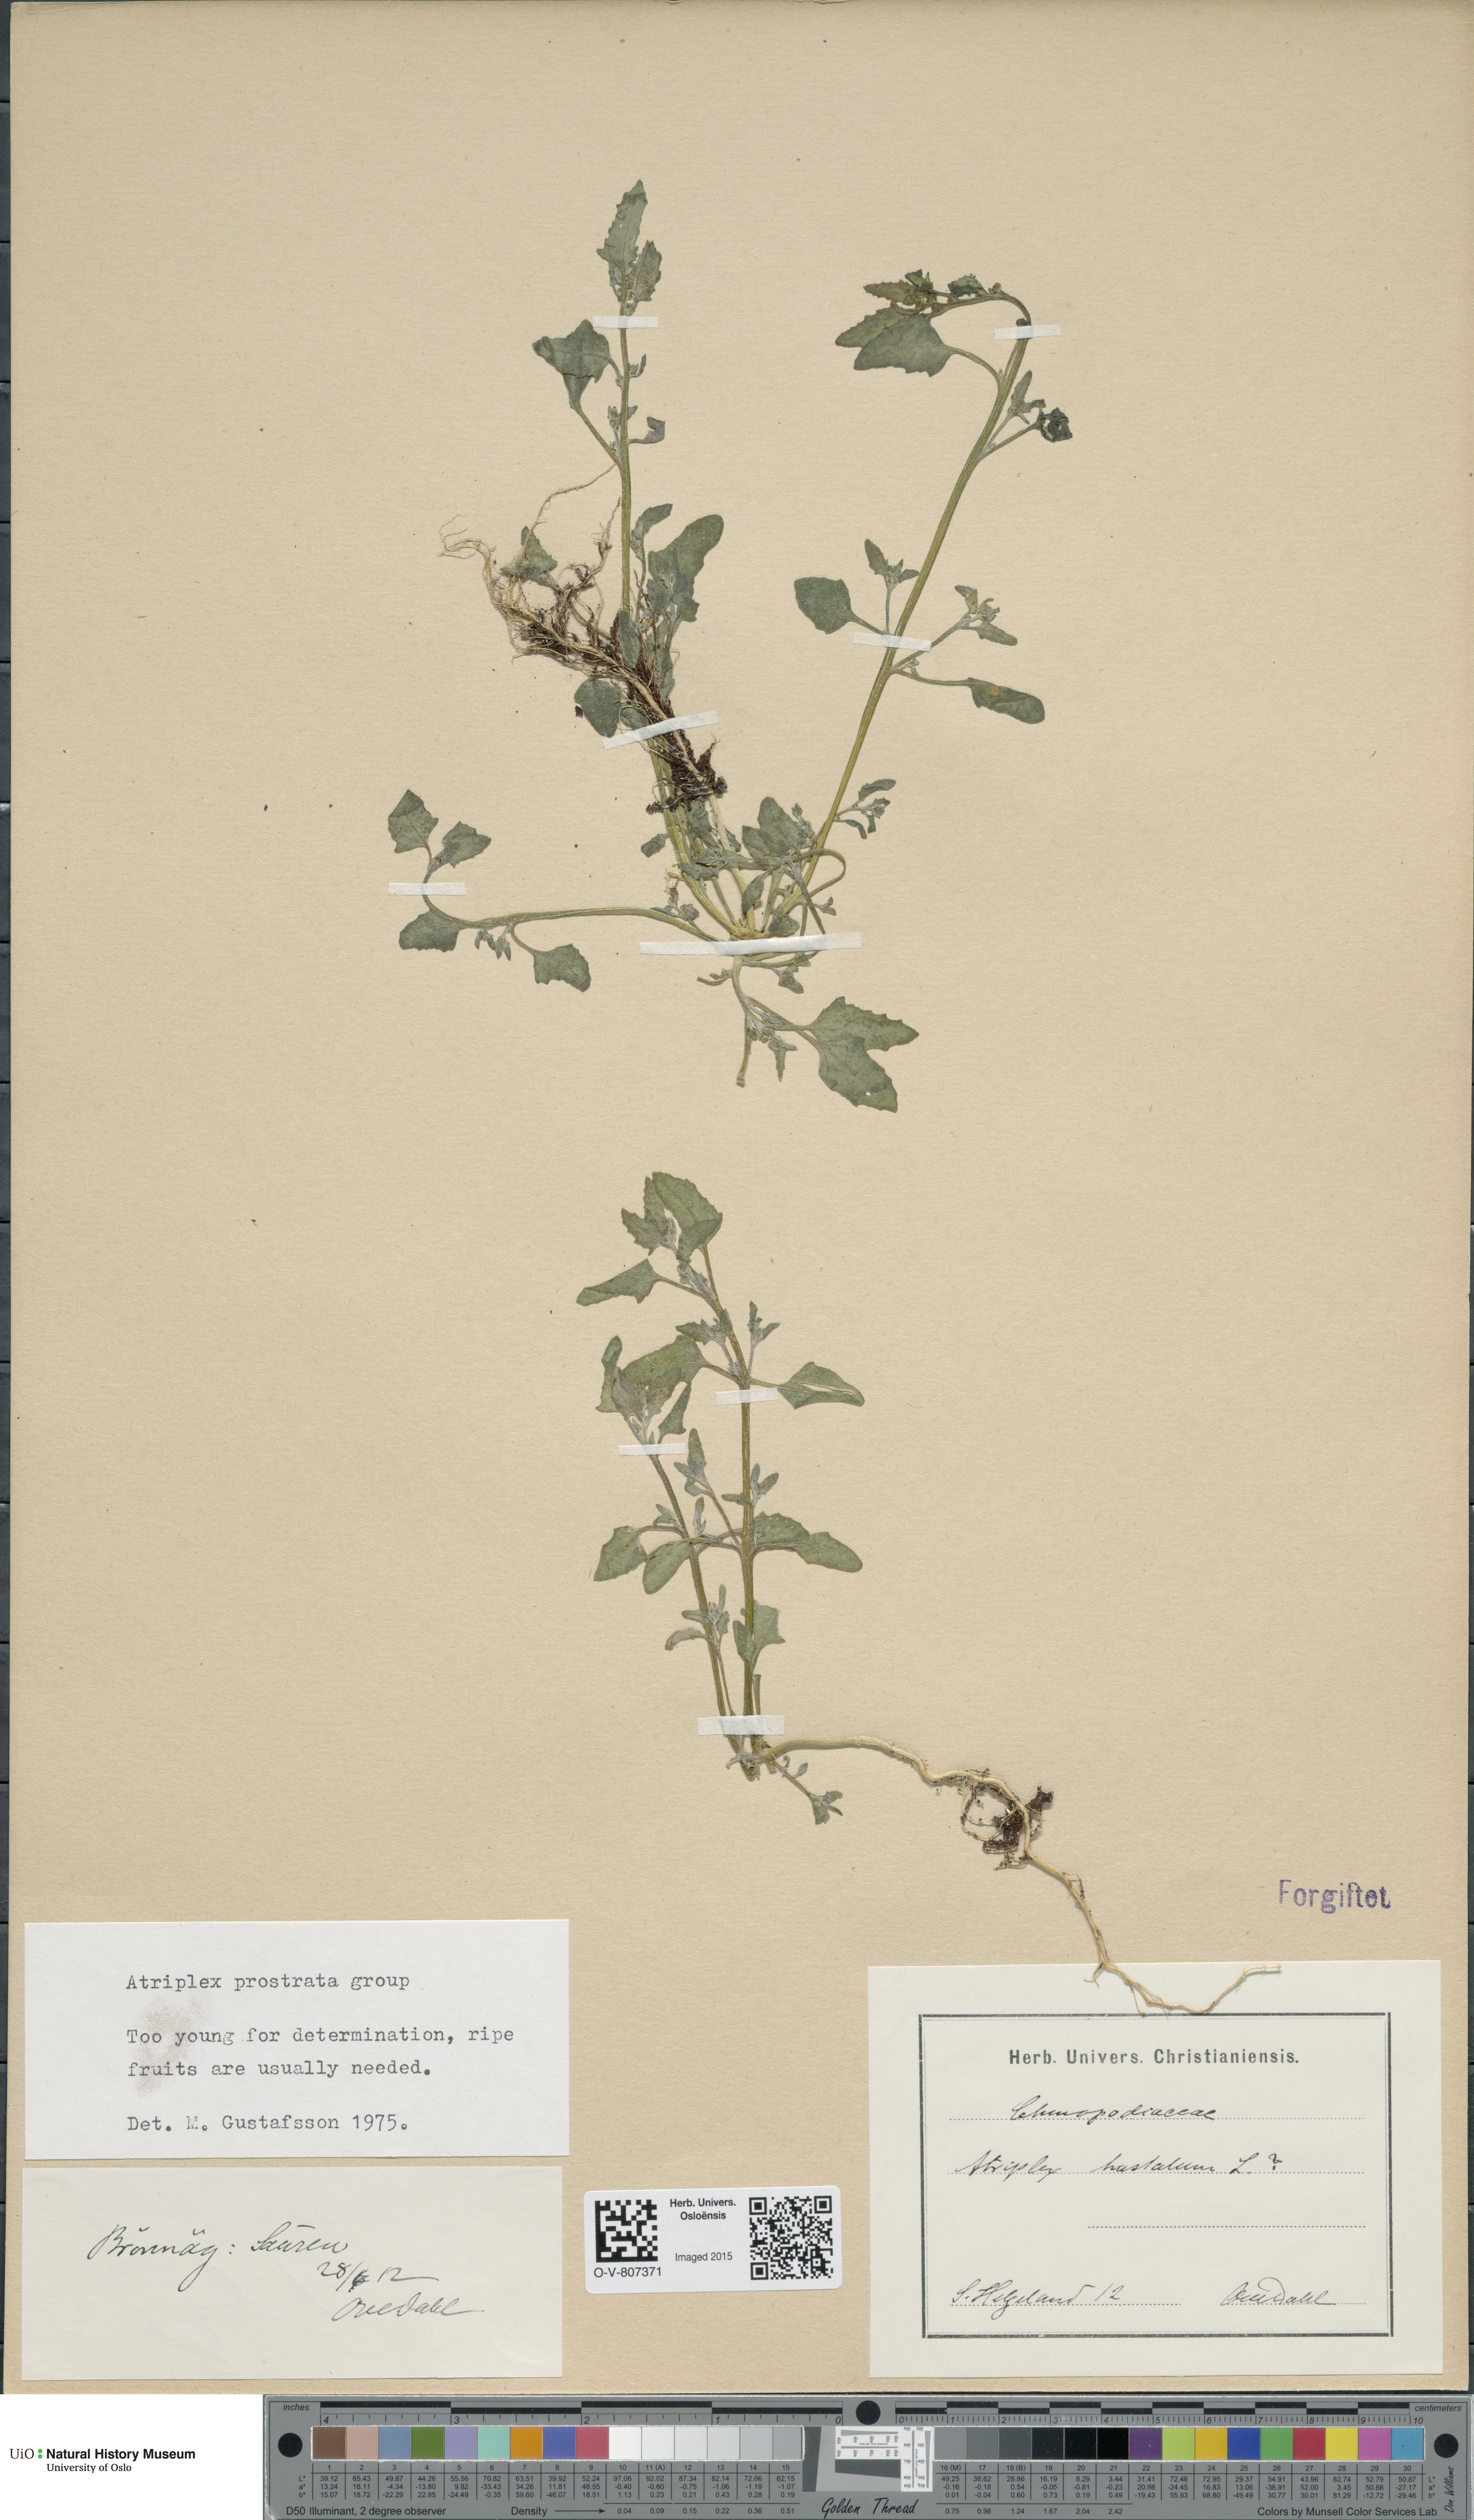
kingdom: Plantae
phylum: Tracheophyta
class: Magnoliopsida
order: Caryophyllales
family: Amaranthaceae
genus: Atriplex
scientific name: Atriplex prostrata
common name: Spear-leaved orache
